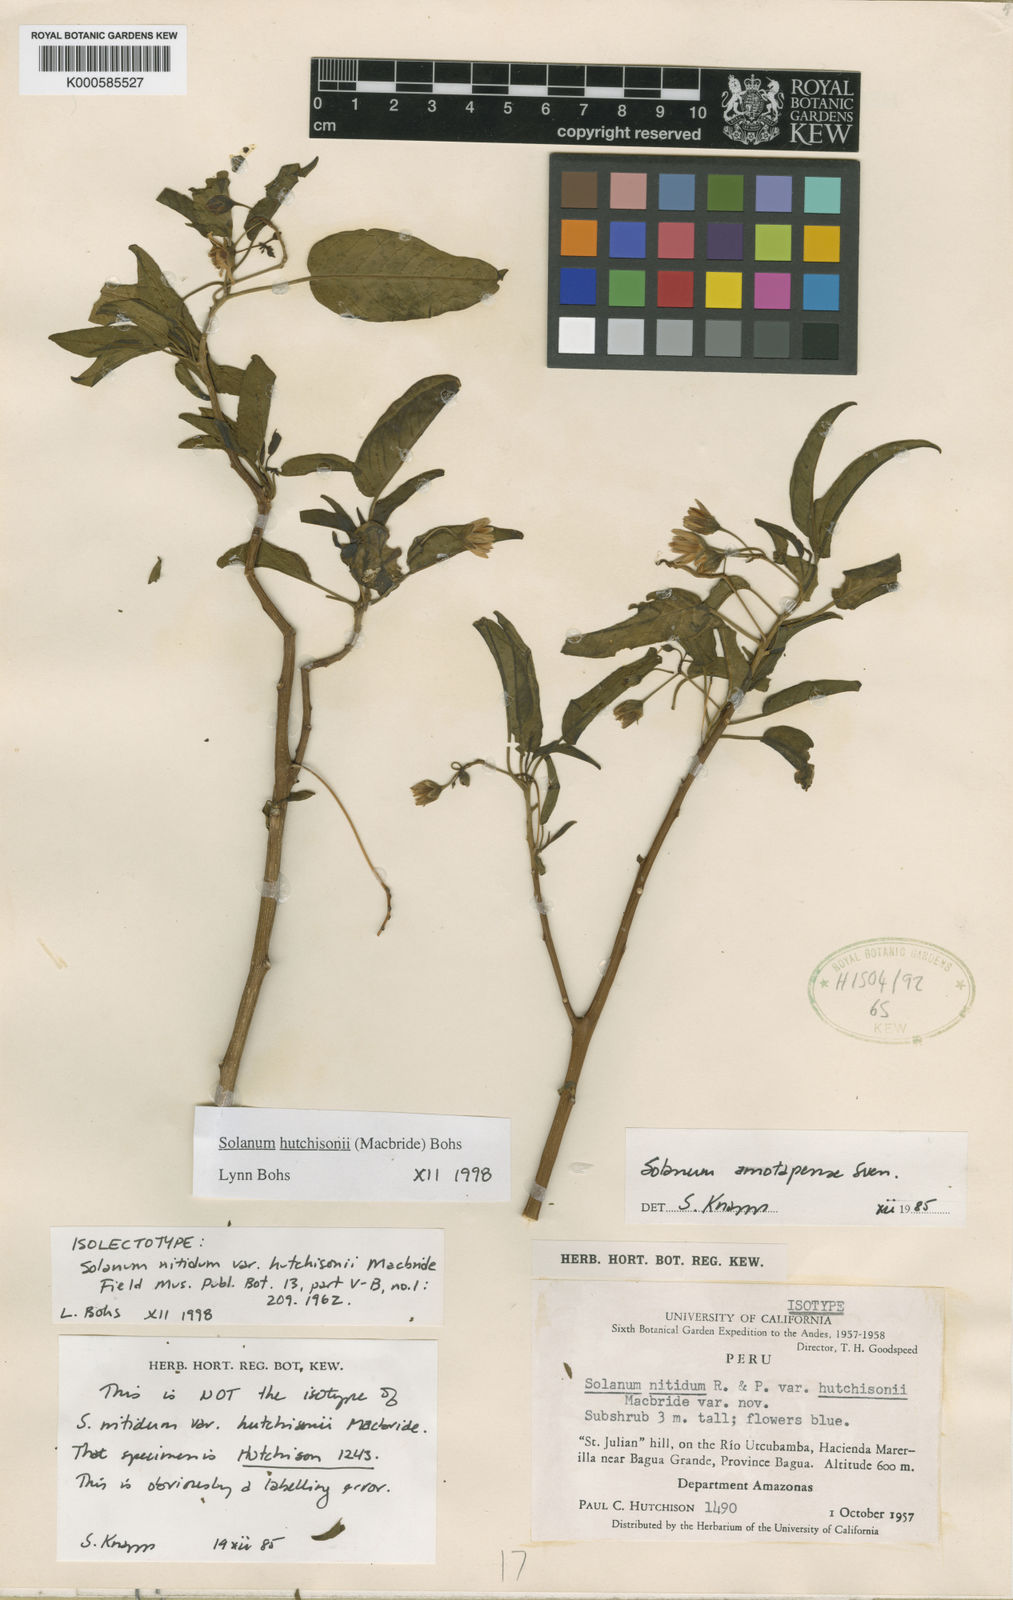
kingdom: Plantae
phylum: Tracheophyta
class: Magnoliopsida
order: Solanales
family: Solanaceae
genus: Solanum
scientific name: Solanum hutchisonii
